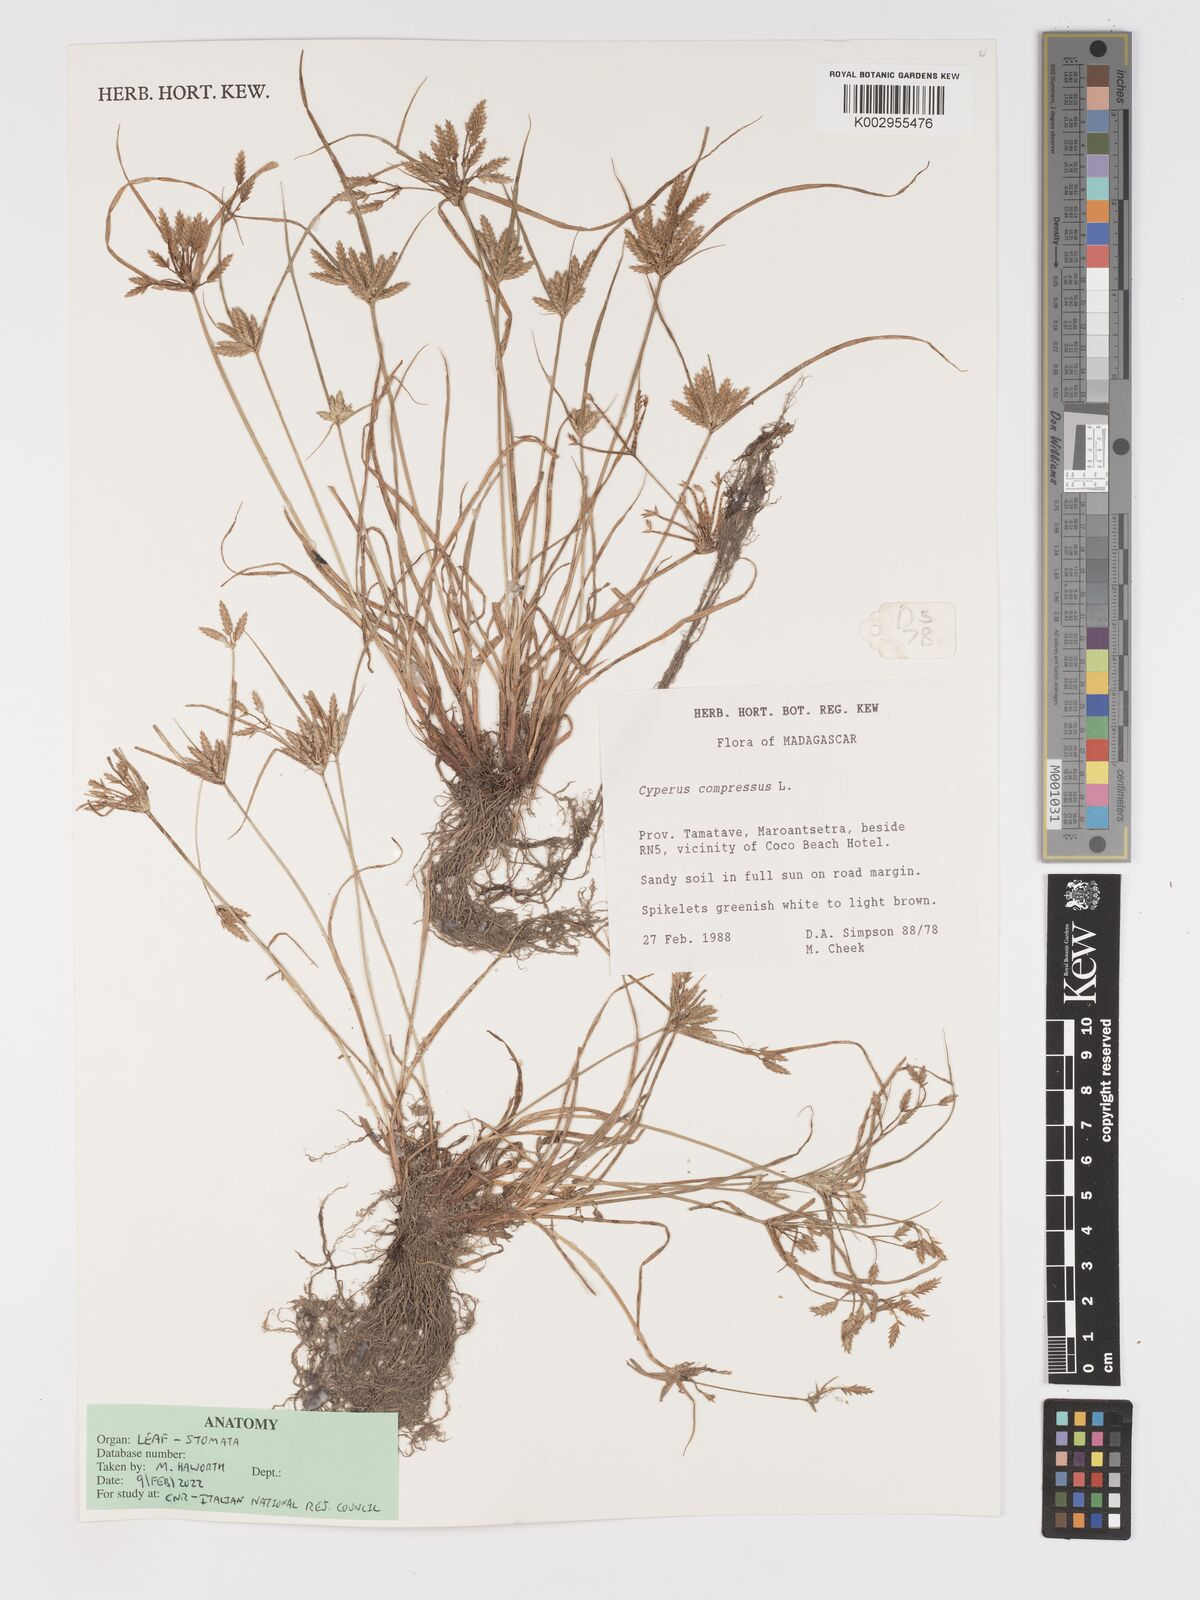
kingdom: Plantae
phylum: Tracheophyta
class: Liliopsida
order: Poales
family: Cyperaceae
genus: Cyperus
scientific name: Cyperus compressus
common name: Poorland flatsedge
